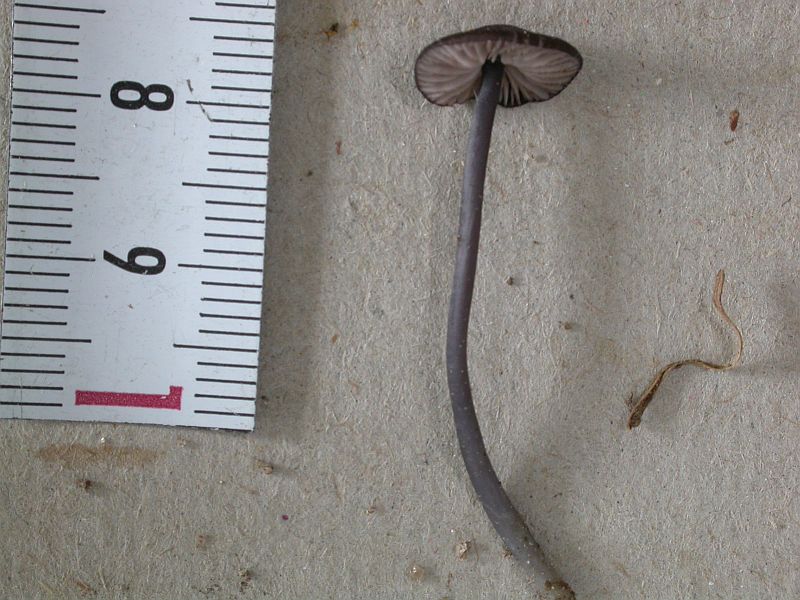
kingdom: Fungi
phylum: Basidiomycota
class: Agaricomycetes
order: Agaricales
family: Entolomataceae
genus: Entoloma
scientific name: Entoloma chalybeum
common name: blåbladet rødblad
